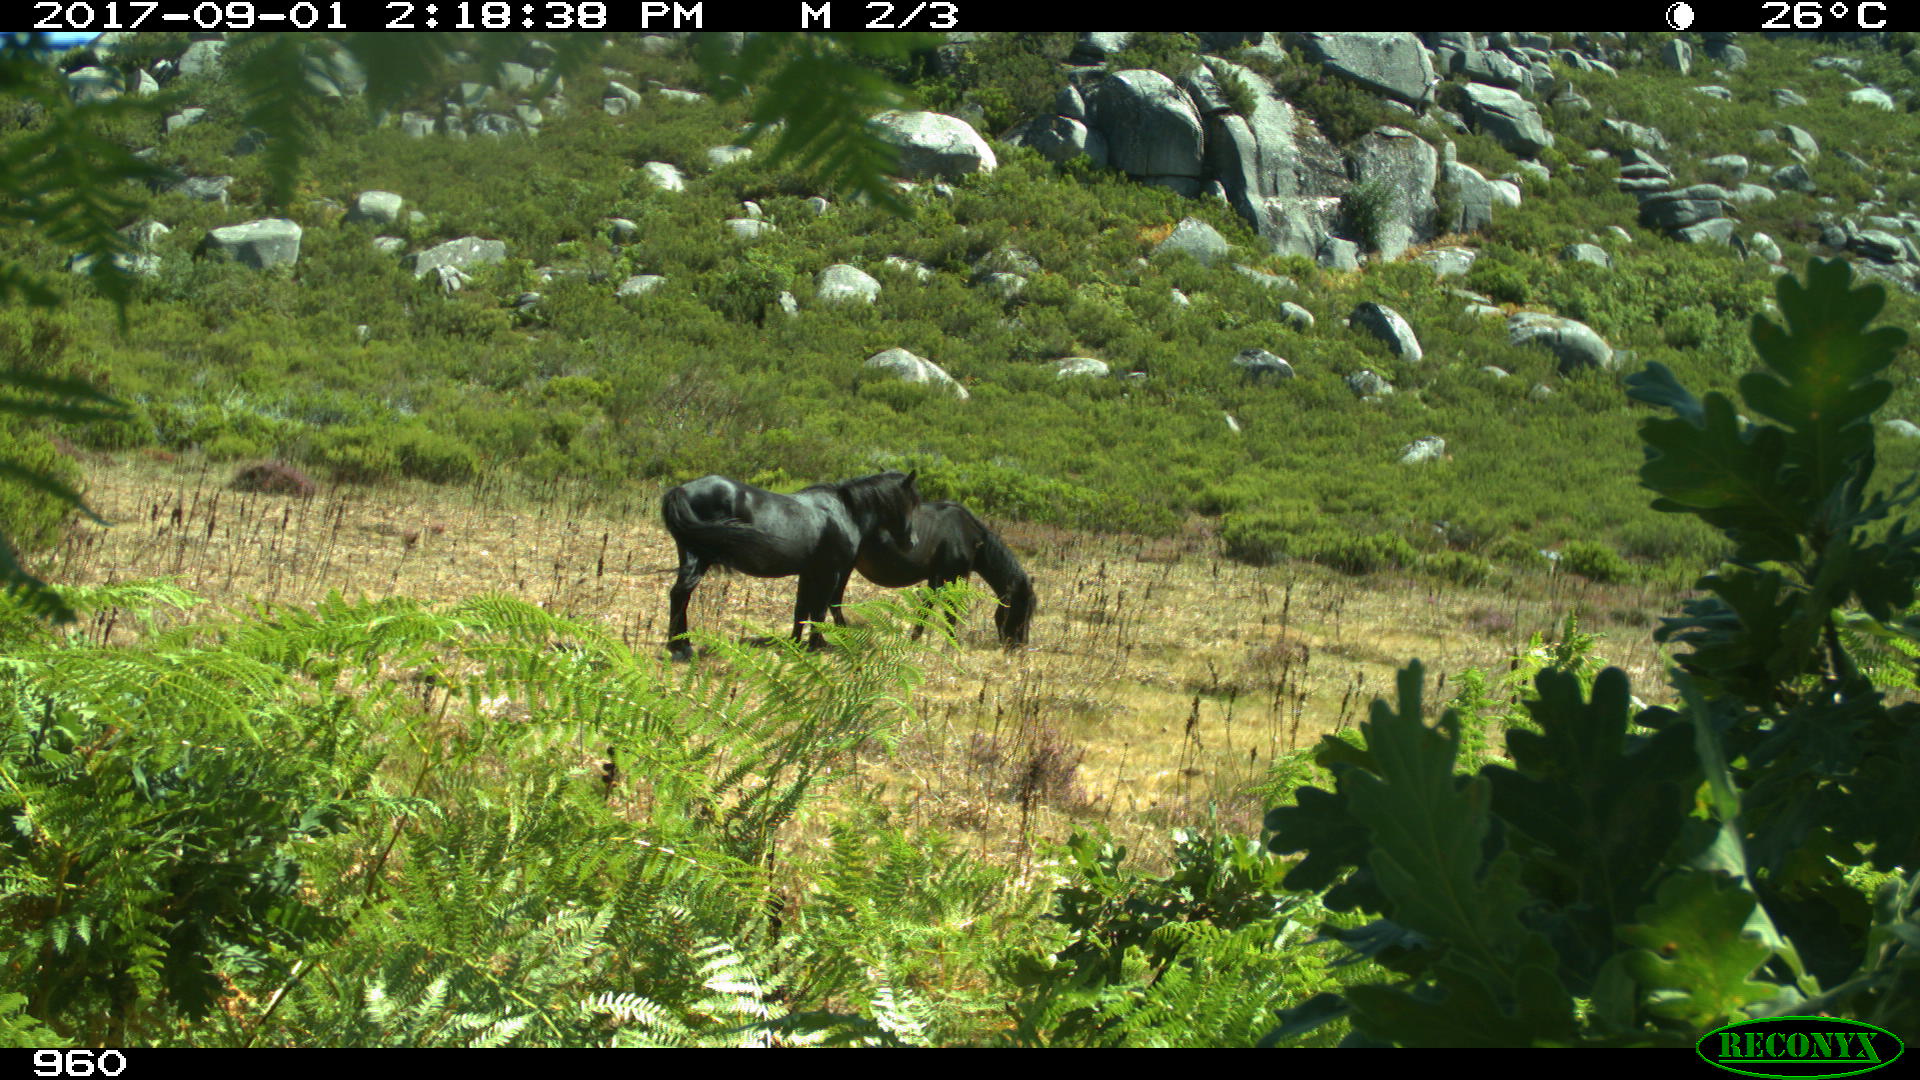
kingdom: Animalia
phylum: Chordata
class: Mammalia
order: Perissodactyla
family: Equidae
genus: Equus
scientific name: Equus caballus
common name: Horse
